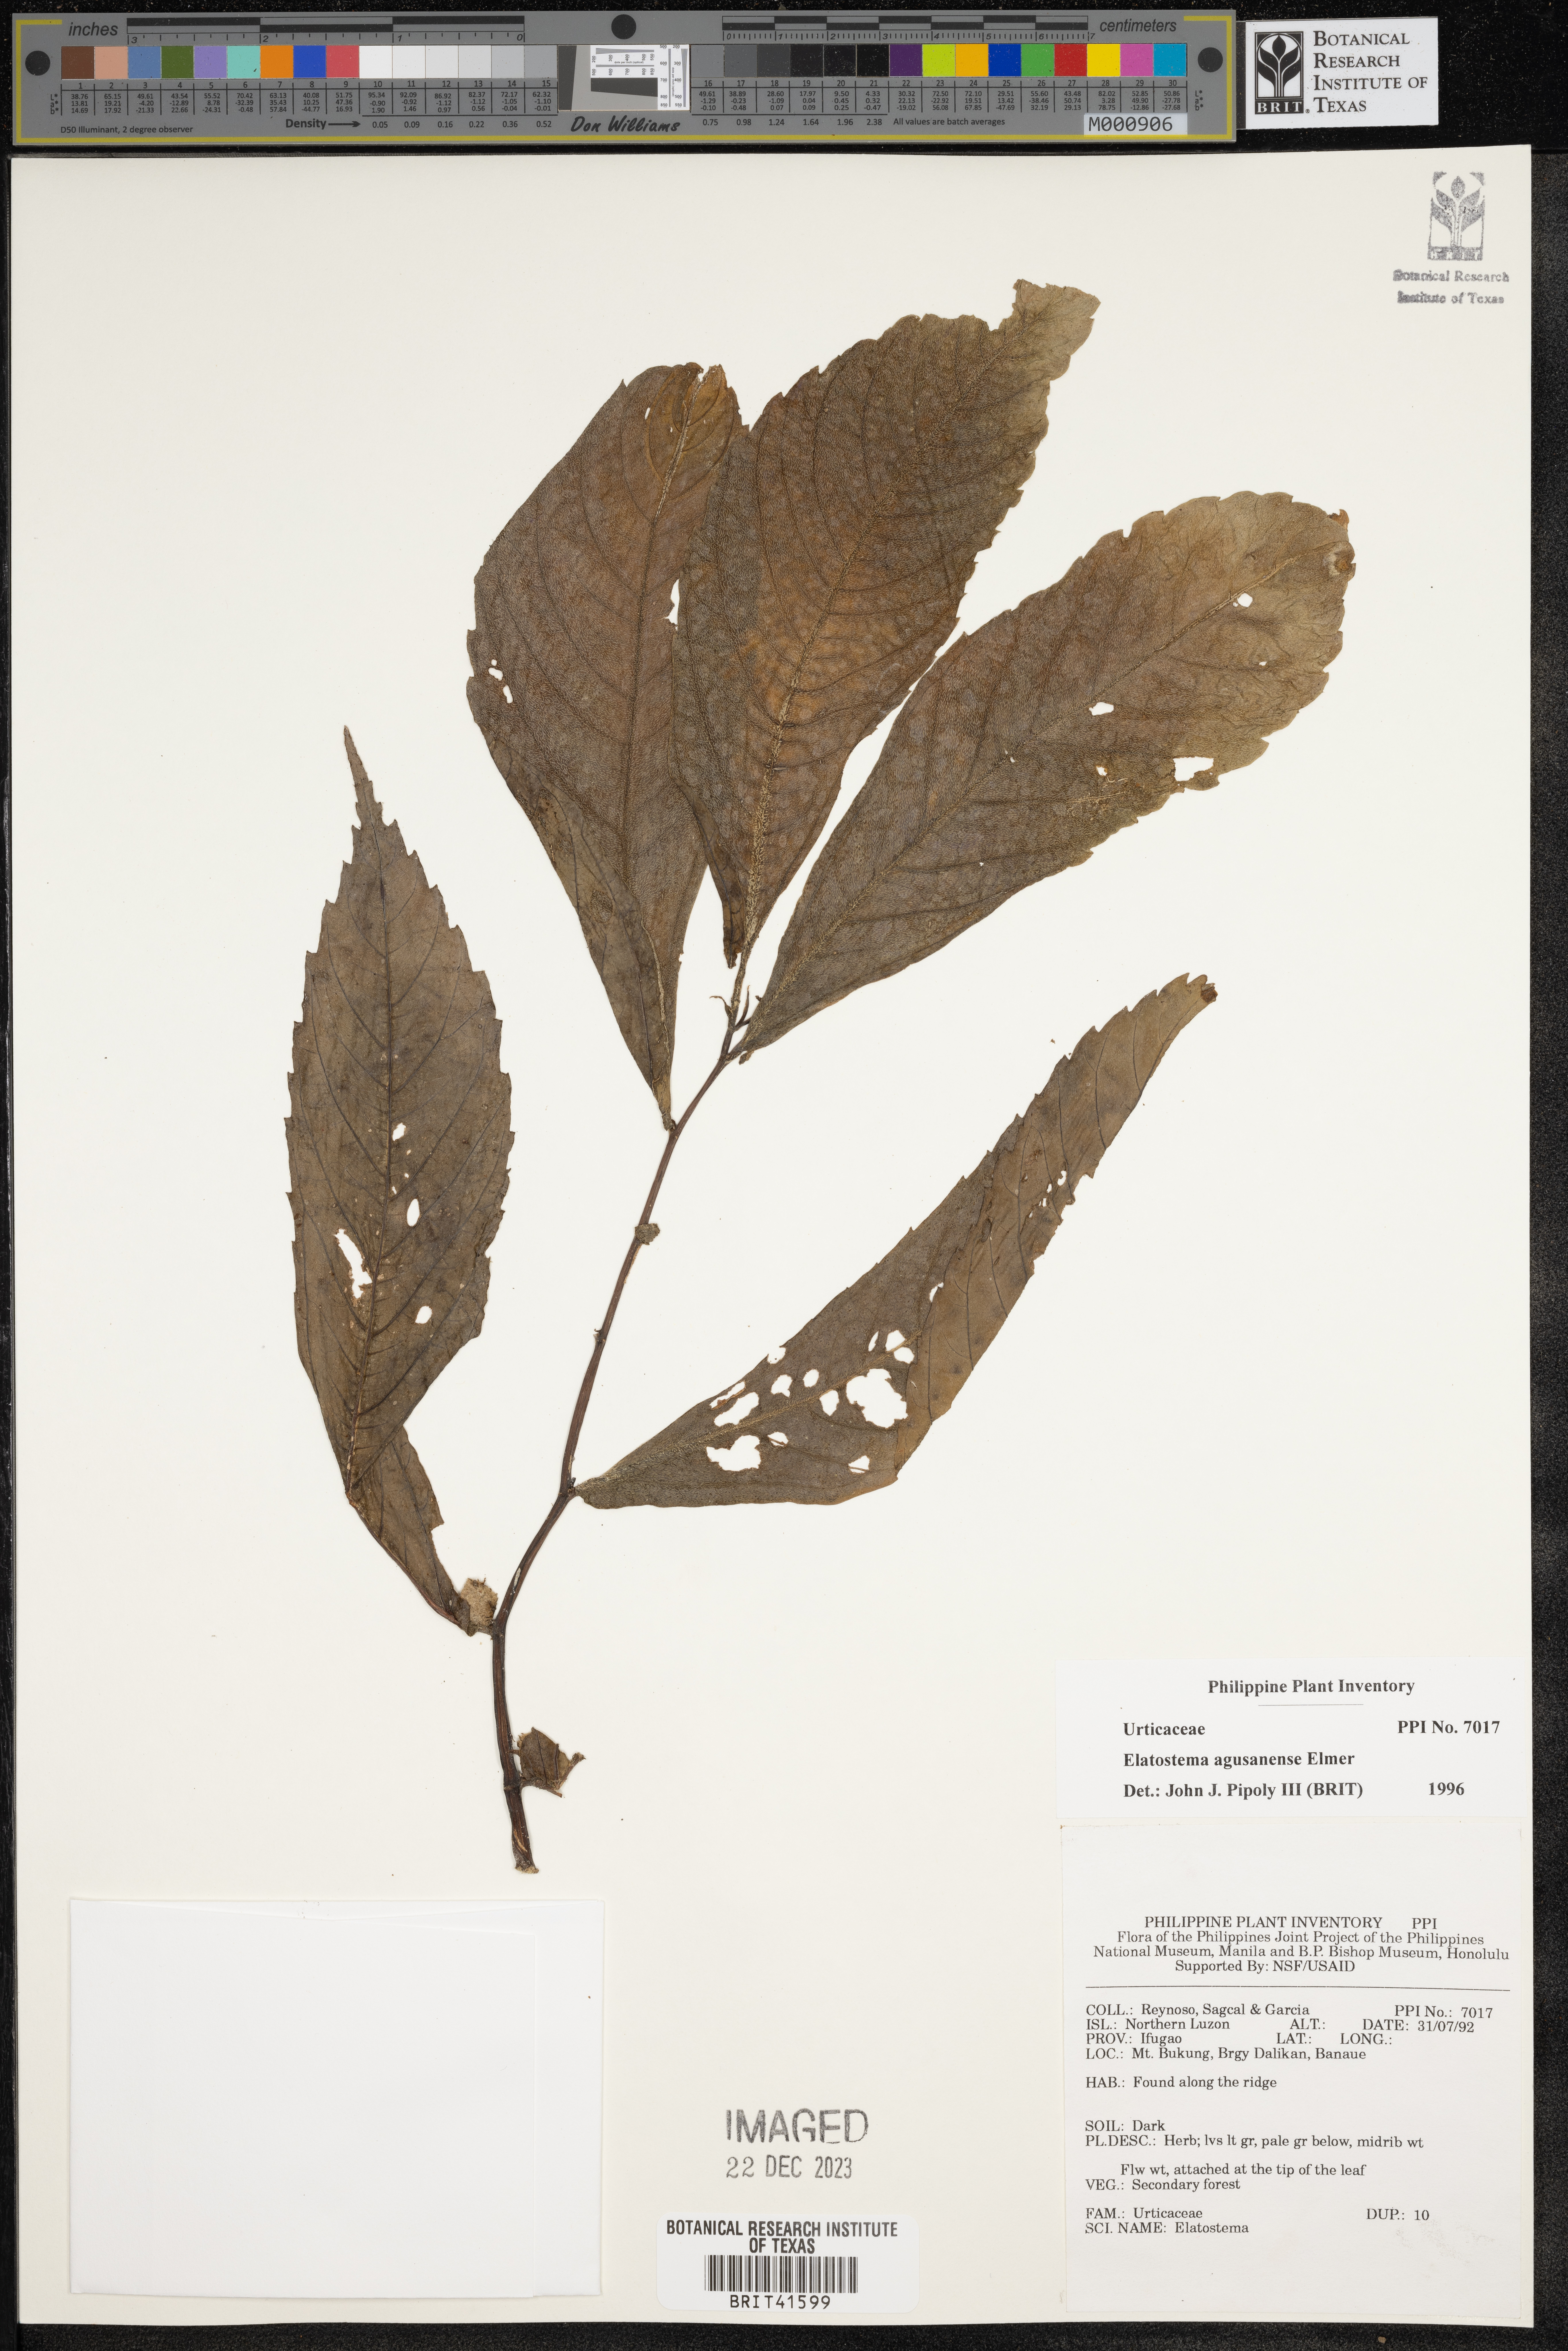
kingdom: Plantae
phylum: Tracheophyta
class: Magnoliopsida
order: Rosales
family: Urticaceae
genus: Elatostema
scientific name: Elatostema agusanense
